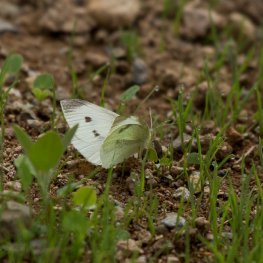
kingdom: Animalia
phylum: Arthropoda
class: Insecta
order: Lepidoptera
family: Pieridae
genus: Pieris
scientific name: Pieris rapae
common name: Cabbage White
